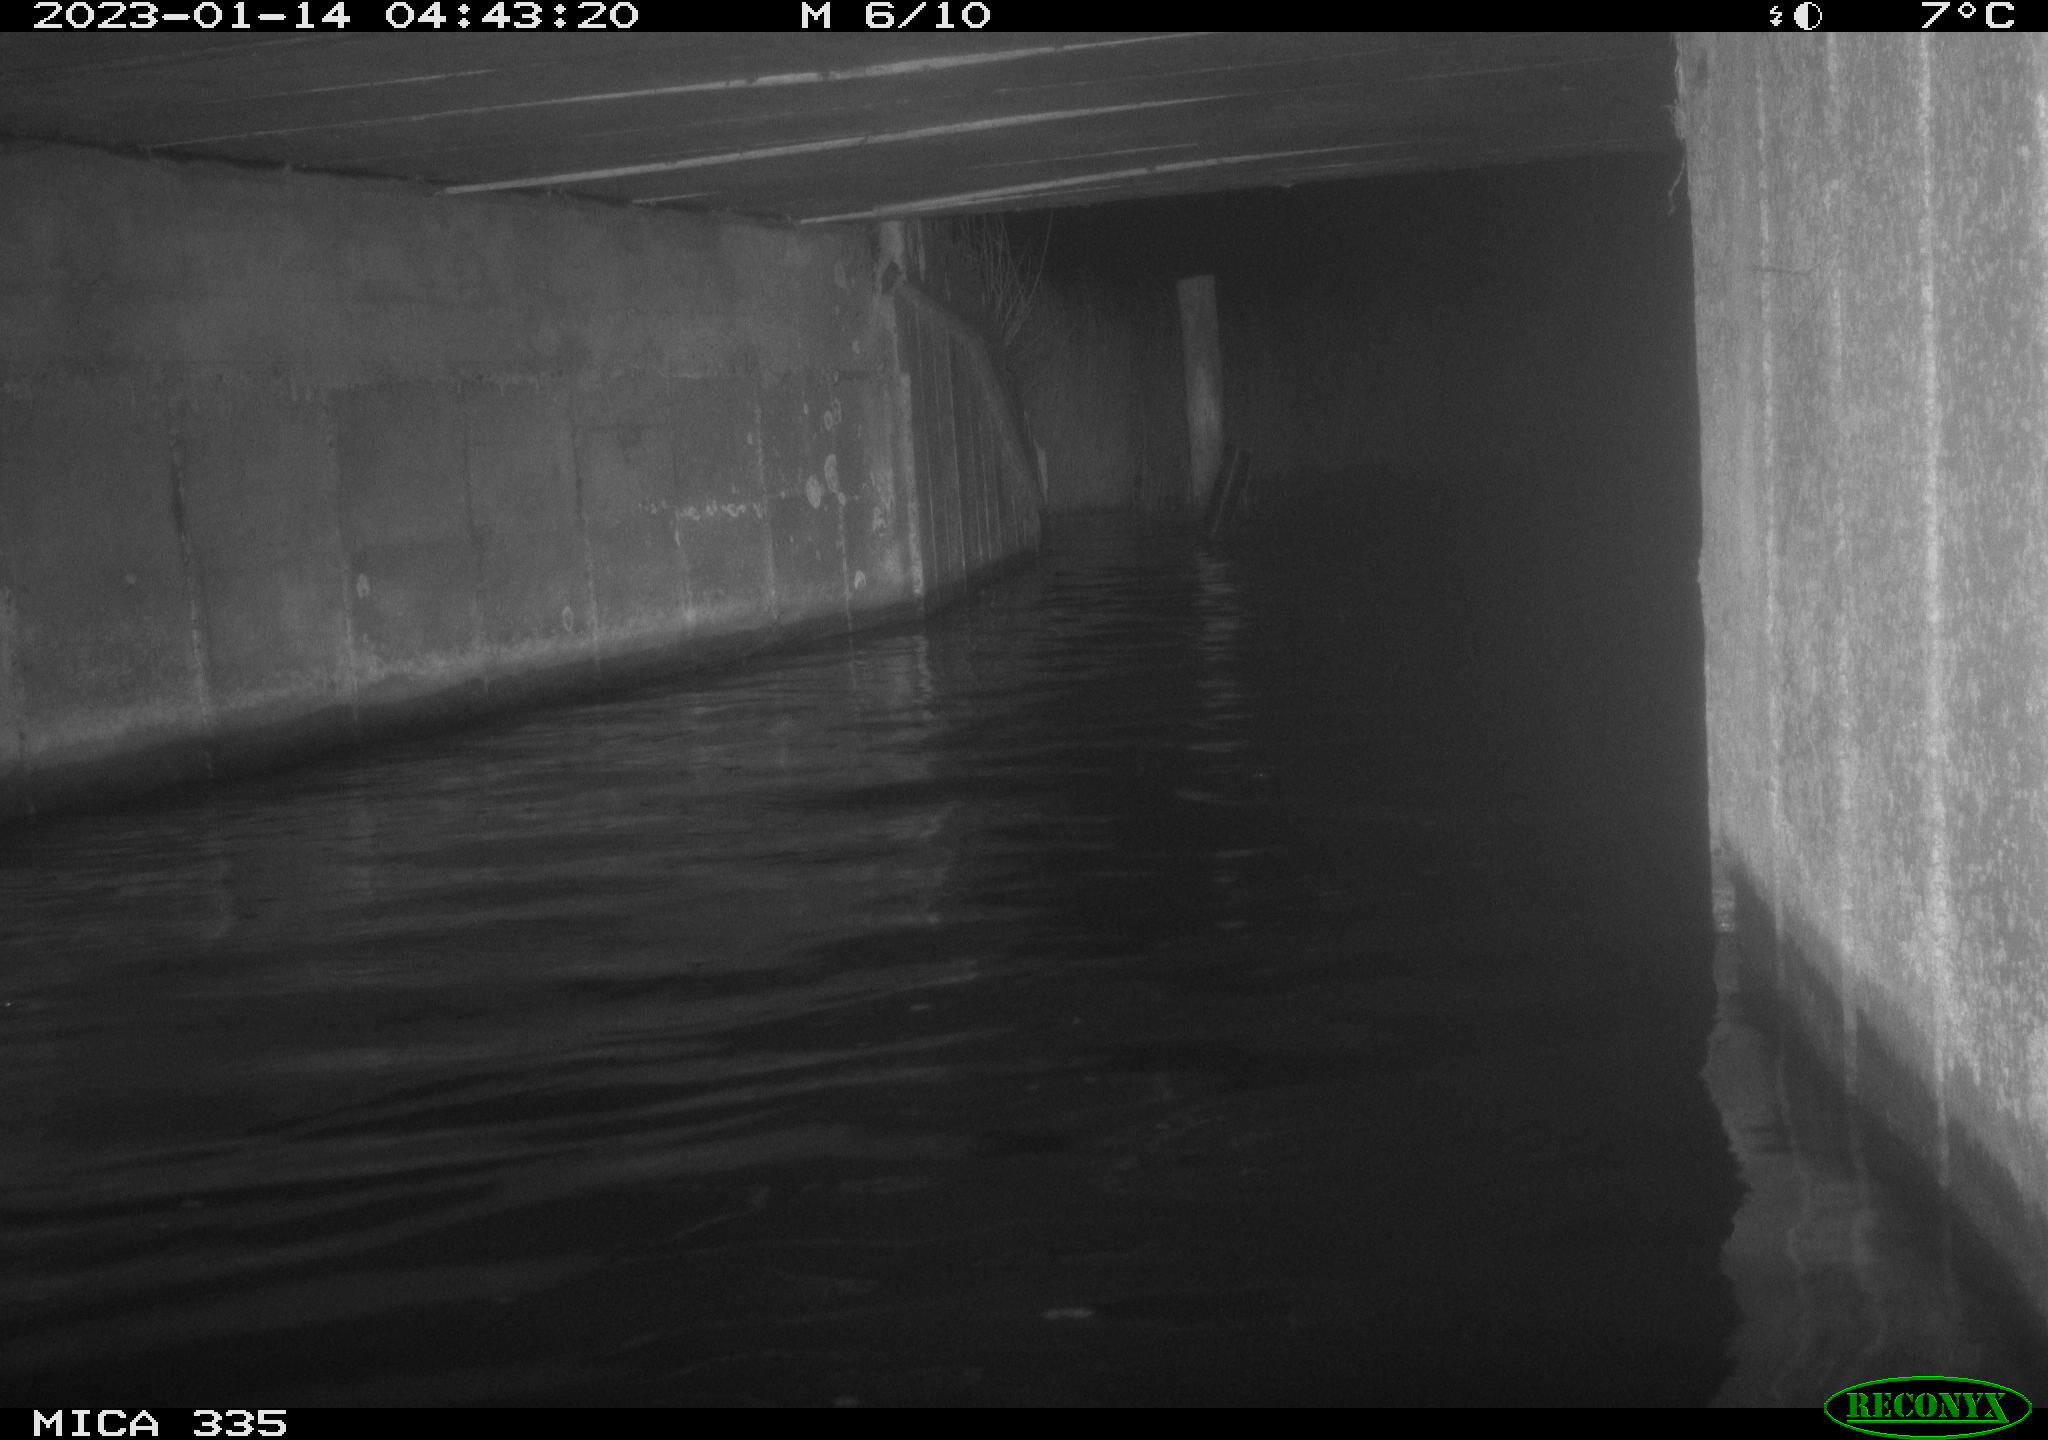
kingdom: Animalia
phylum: Chordata
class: Aves
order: Anseriformes
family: Anatidae
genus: Cygnus
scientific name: Cygnus olor
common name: Mute swan
